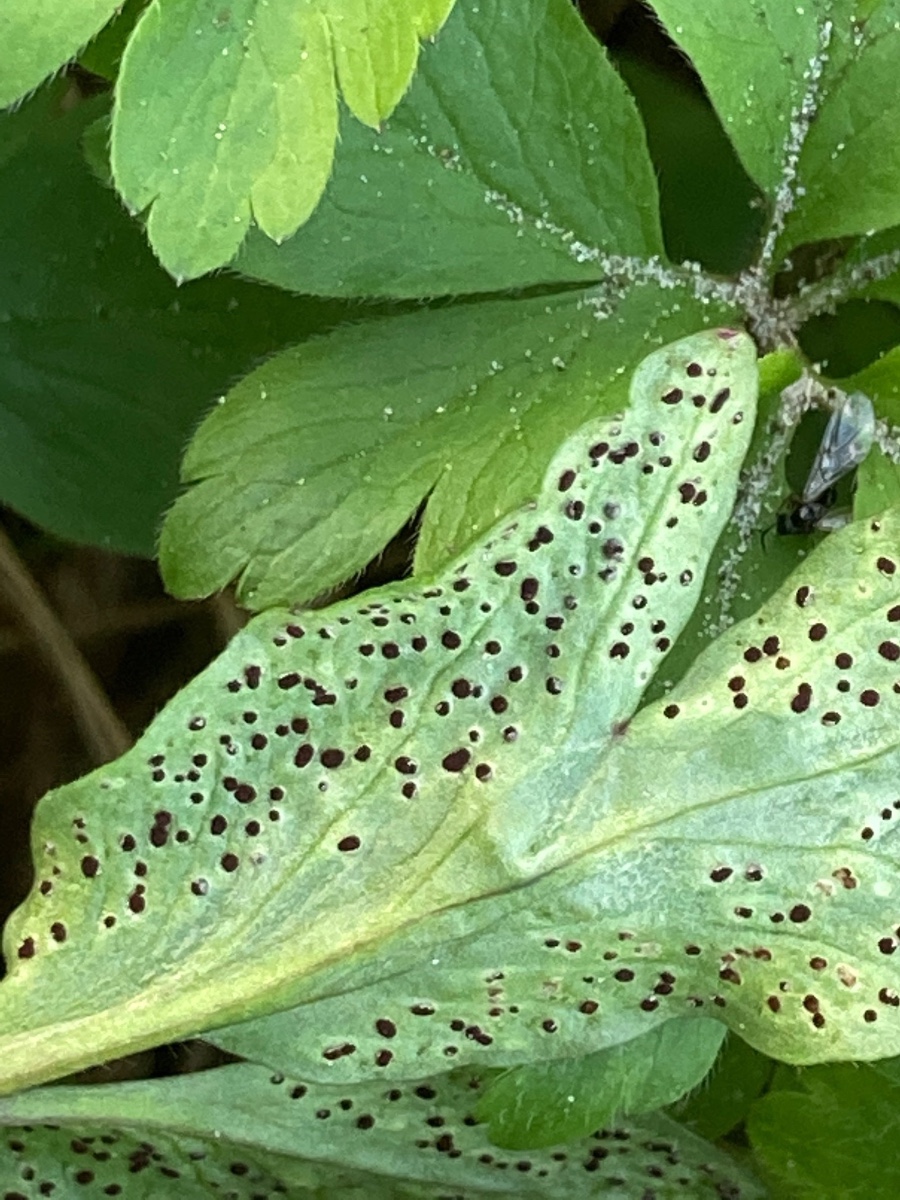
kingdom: Fungi
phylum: Basidiomycota
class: Pucciniomycetes
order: Pucciniales
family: Tranzscheliaceae
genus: Tranzschelia
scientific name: Tranzschelia anemones
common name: anemone-knæksporerust
